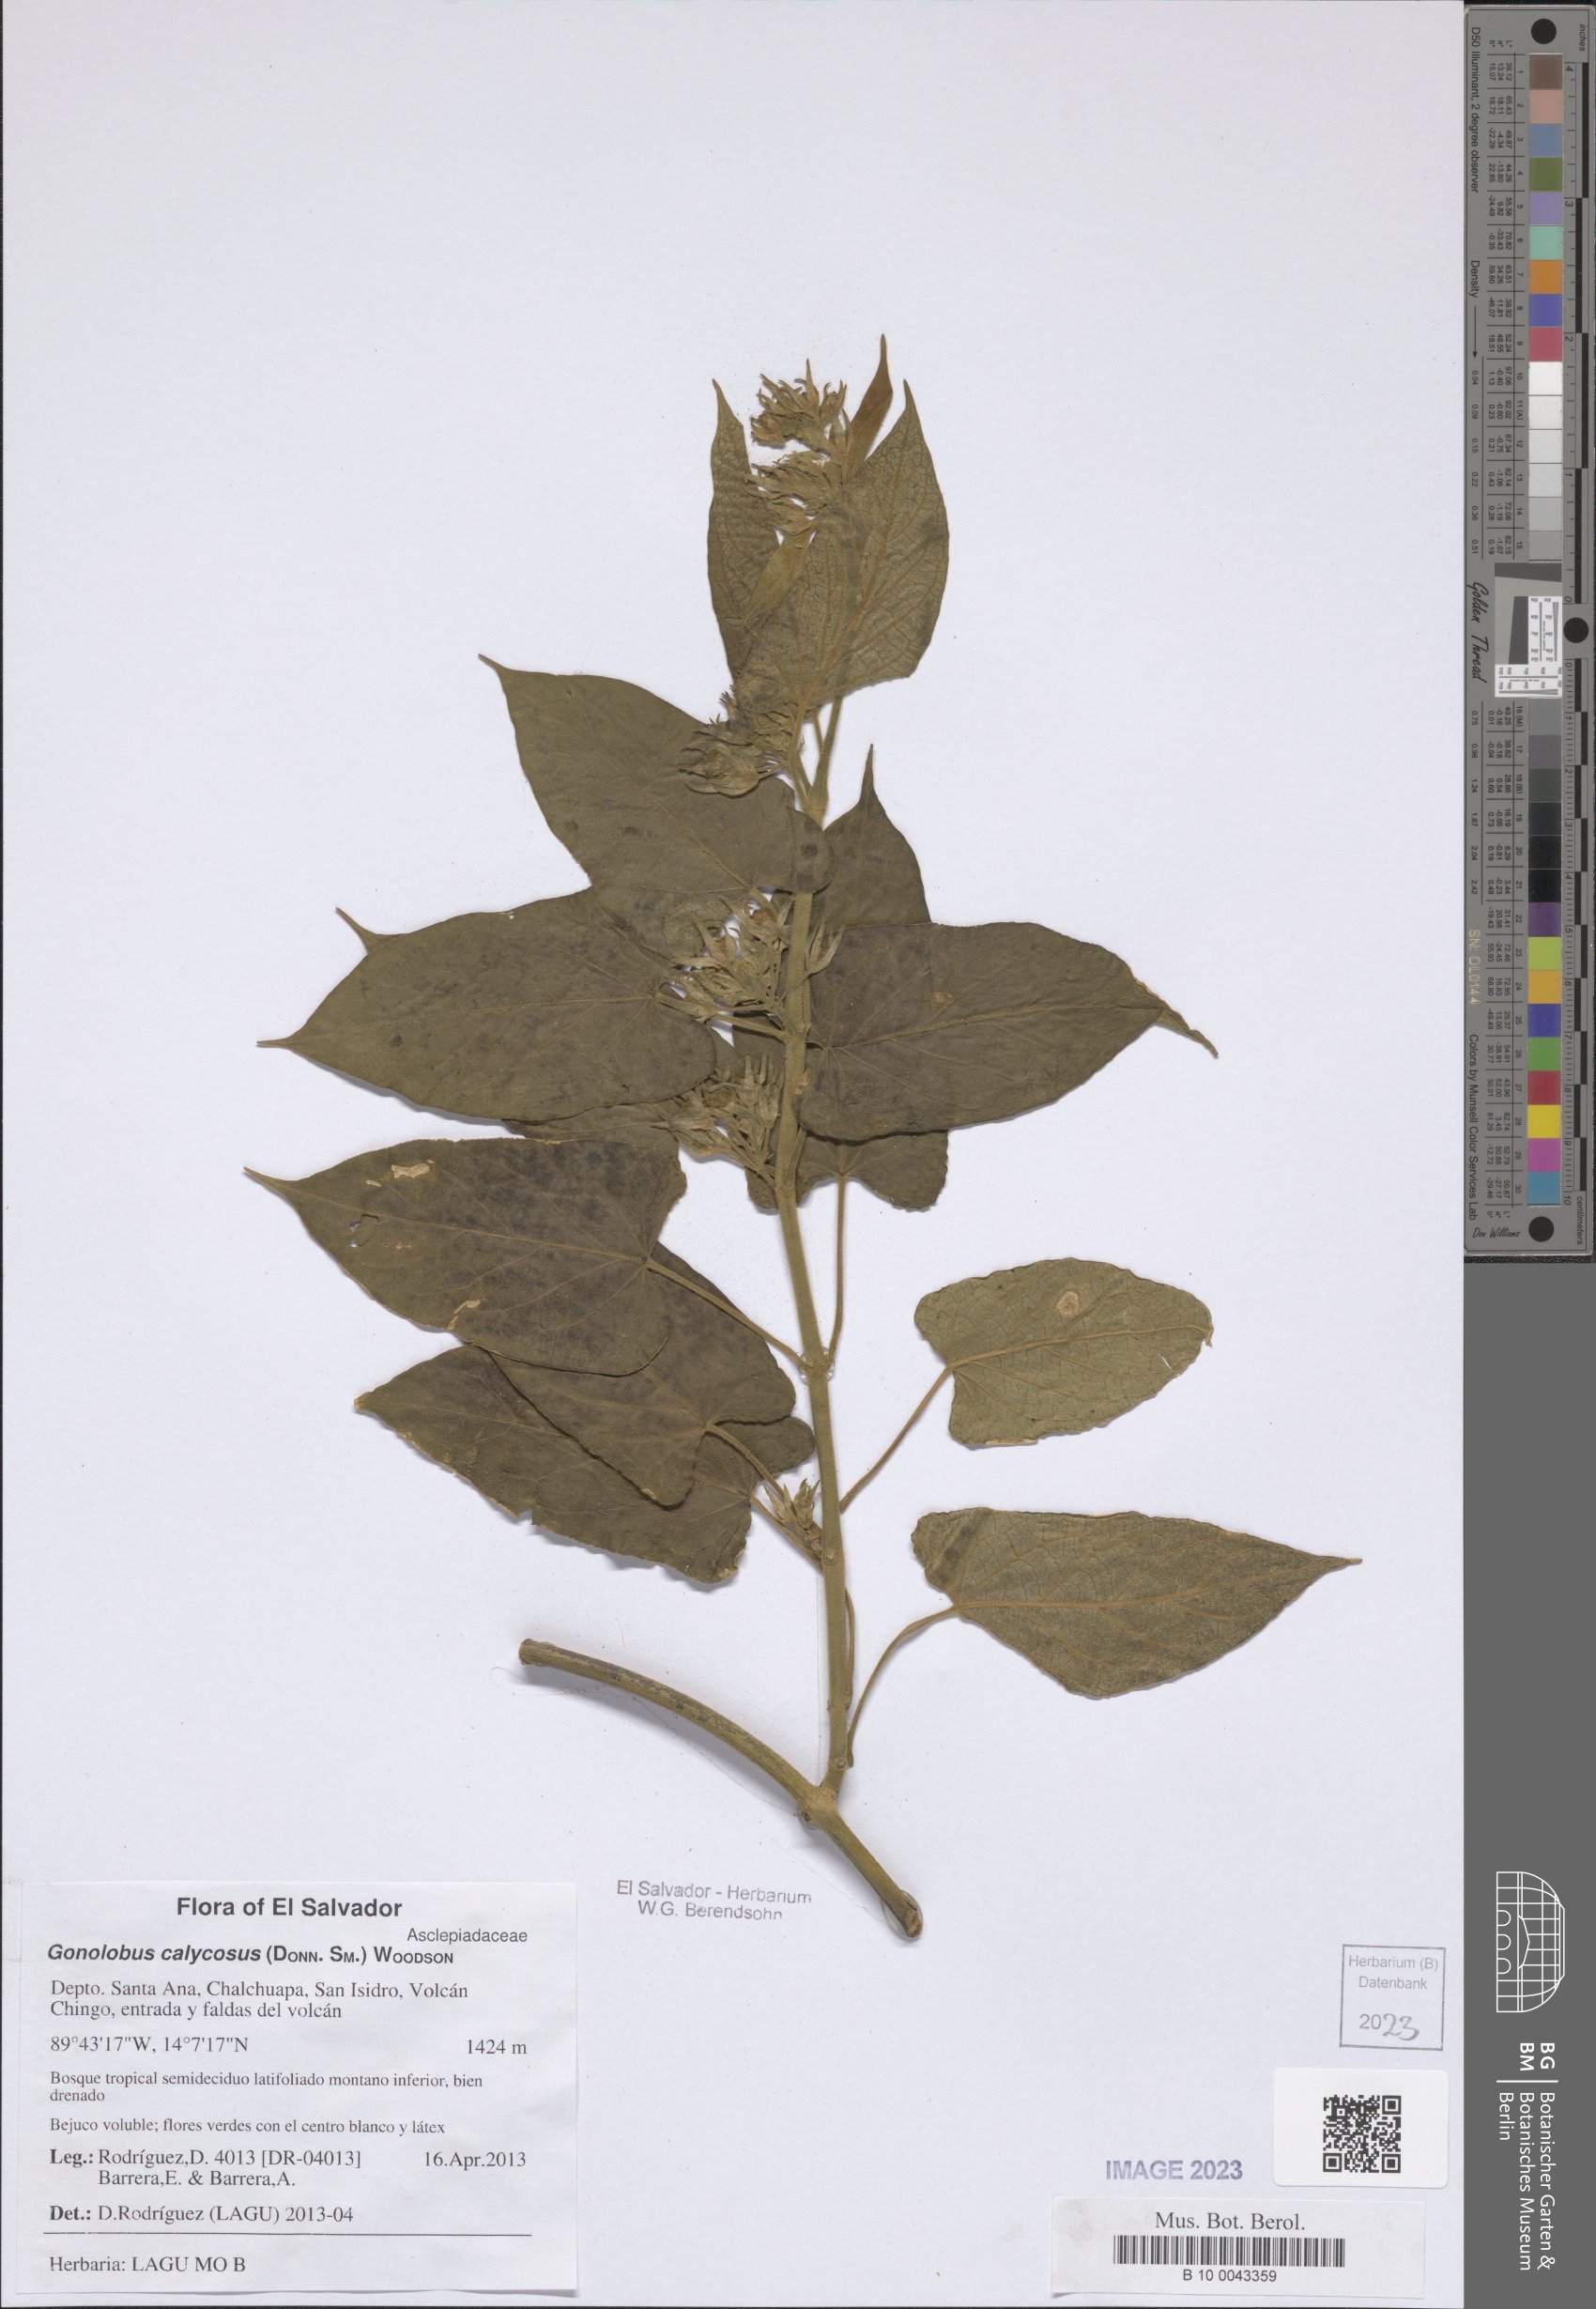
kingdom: Plantae
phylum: Tracheophyta
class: Magnoliopsida
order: Gentianales
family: Apocynaceae
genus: Gonolobus
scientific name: Gonolobus calycosus
